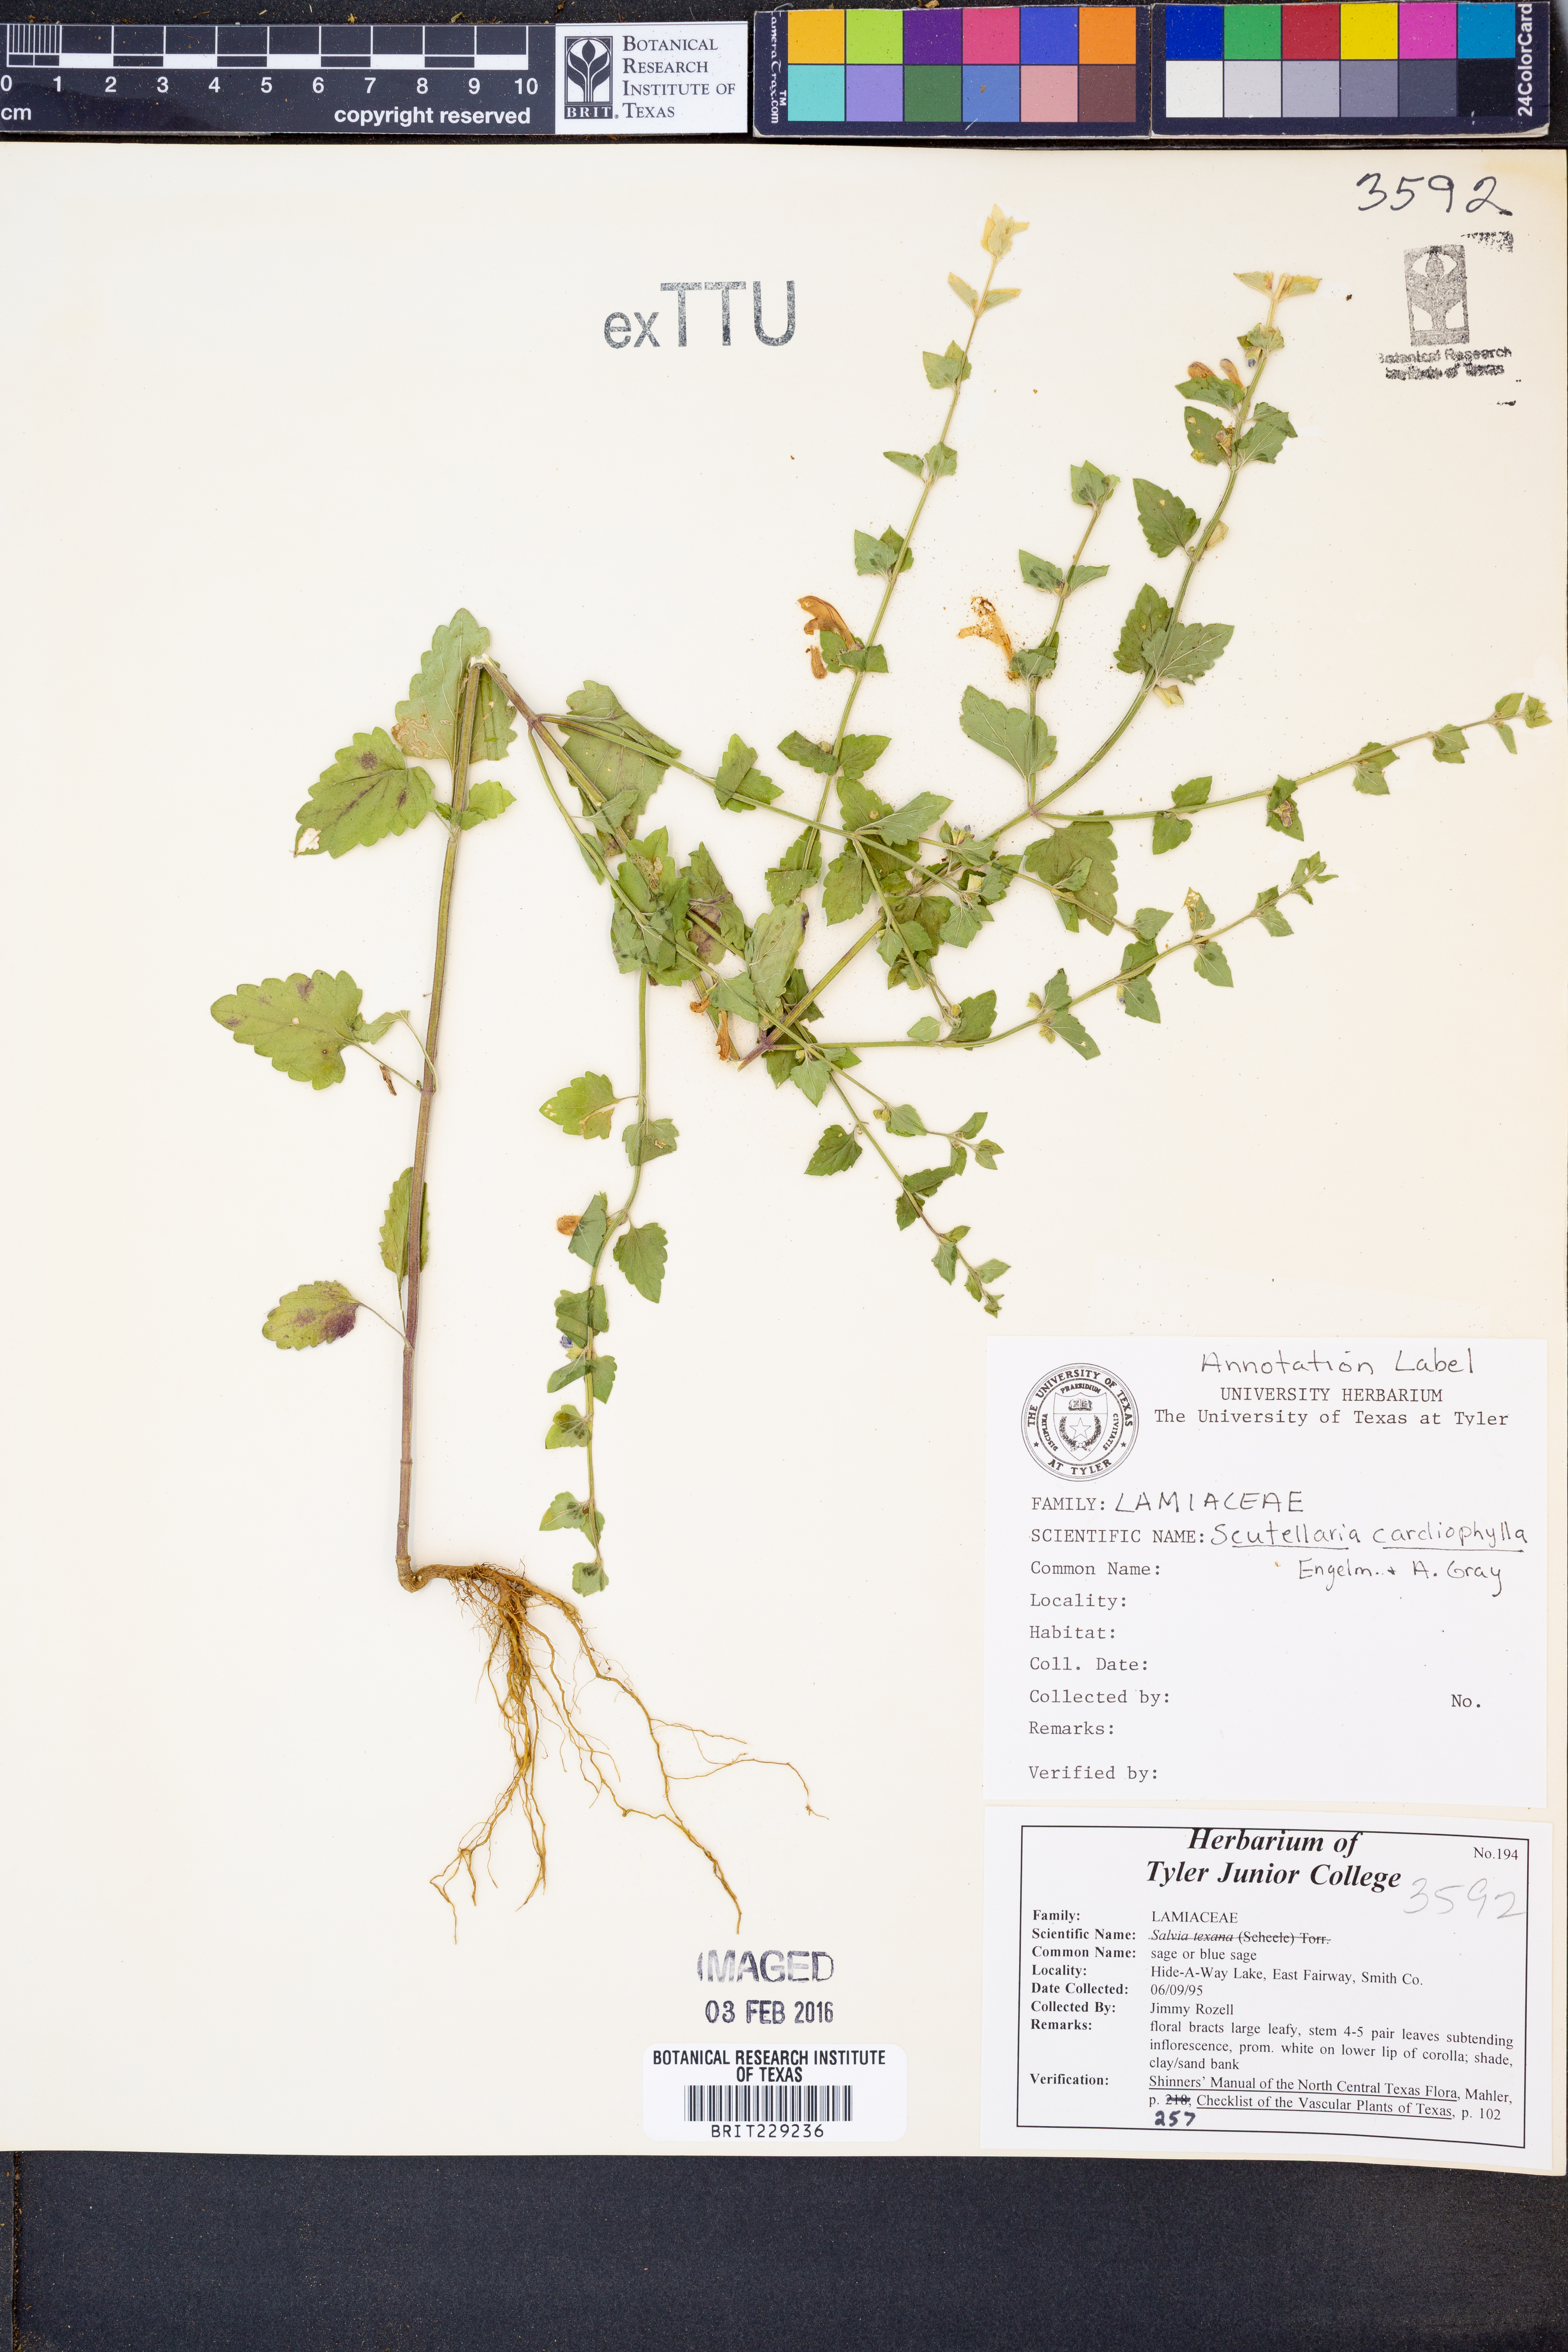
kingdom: Plantae
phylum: Tracheophyta
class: Magnoliopsida
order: Lamiales
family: Lamiaceae
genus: Scutellaria
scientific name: Scutellaria cardiophylla
